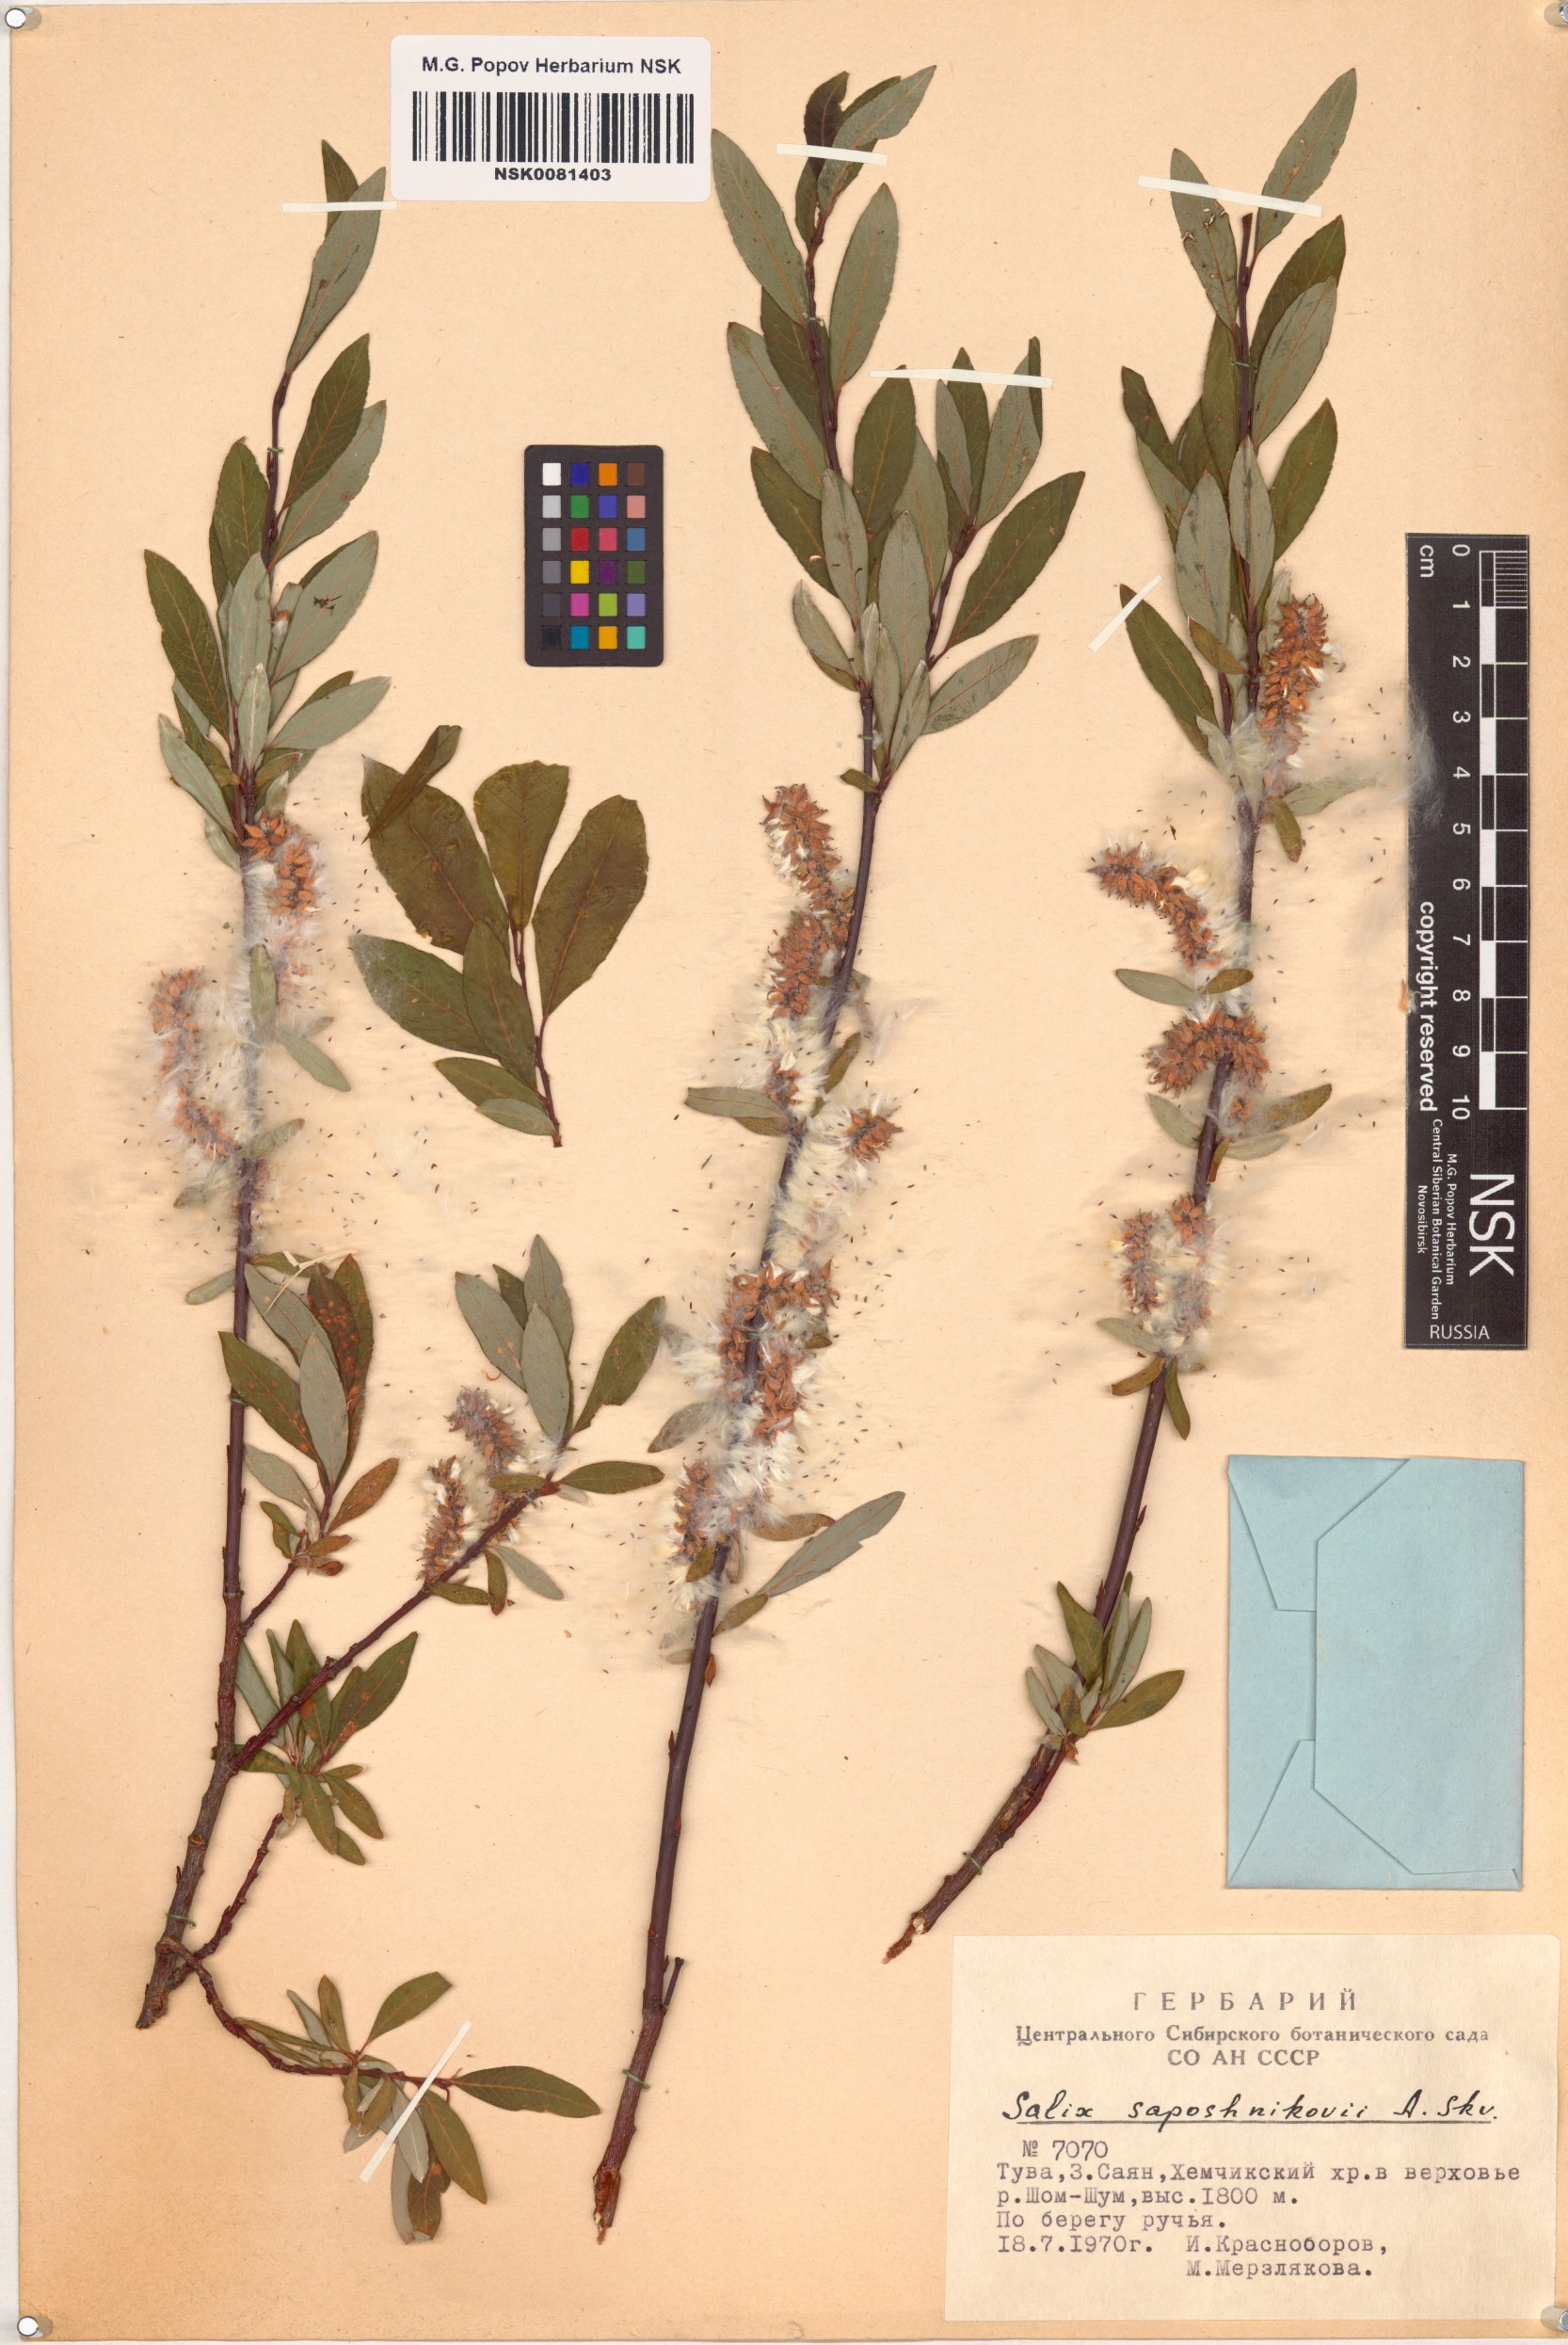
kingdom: Plantae
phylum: Tracheophyta
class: Magnoliopsida
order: Malpighiales
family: Salicaceae
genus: Salix
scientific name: Salix saposhnikovii
